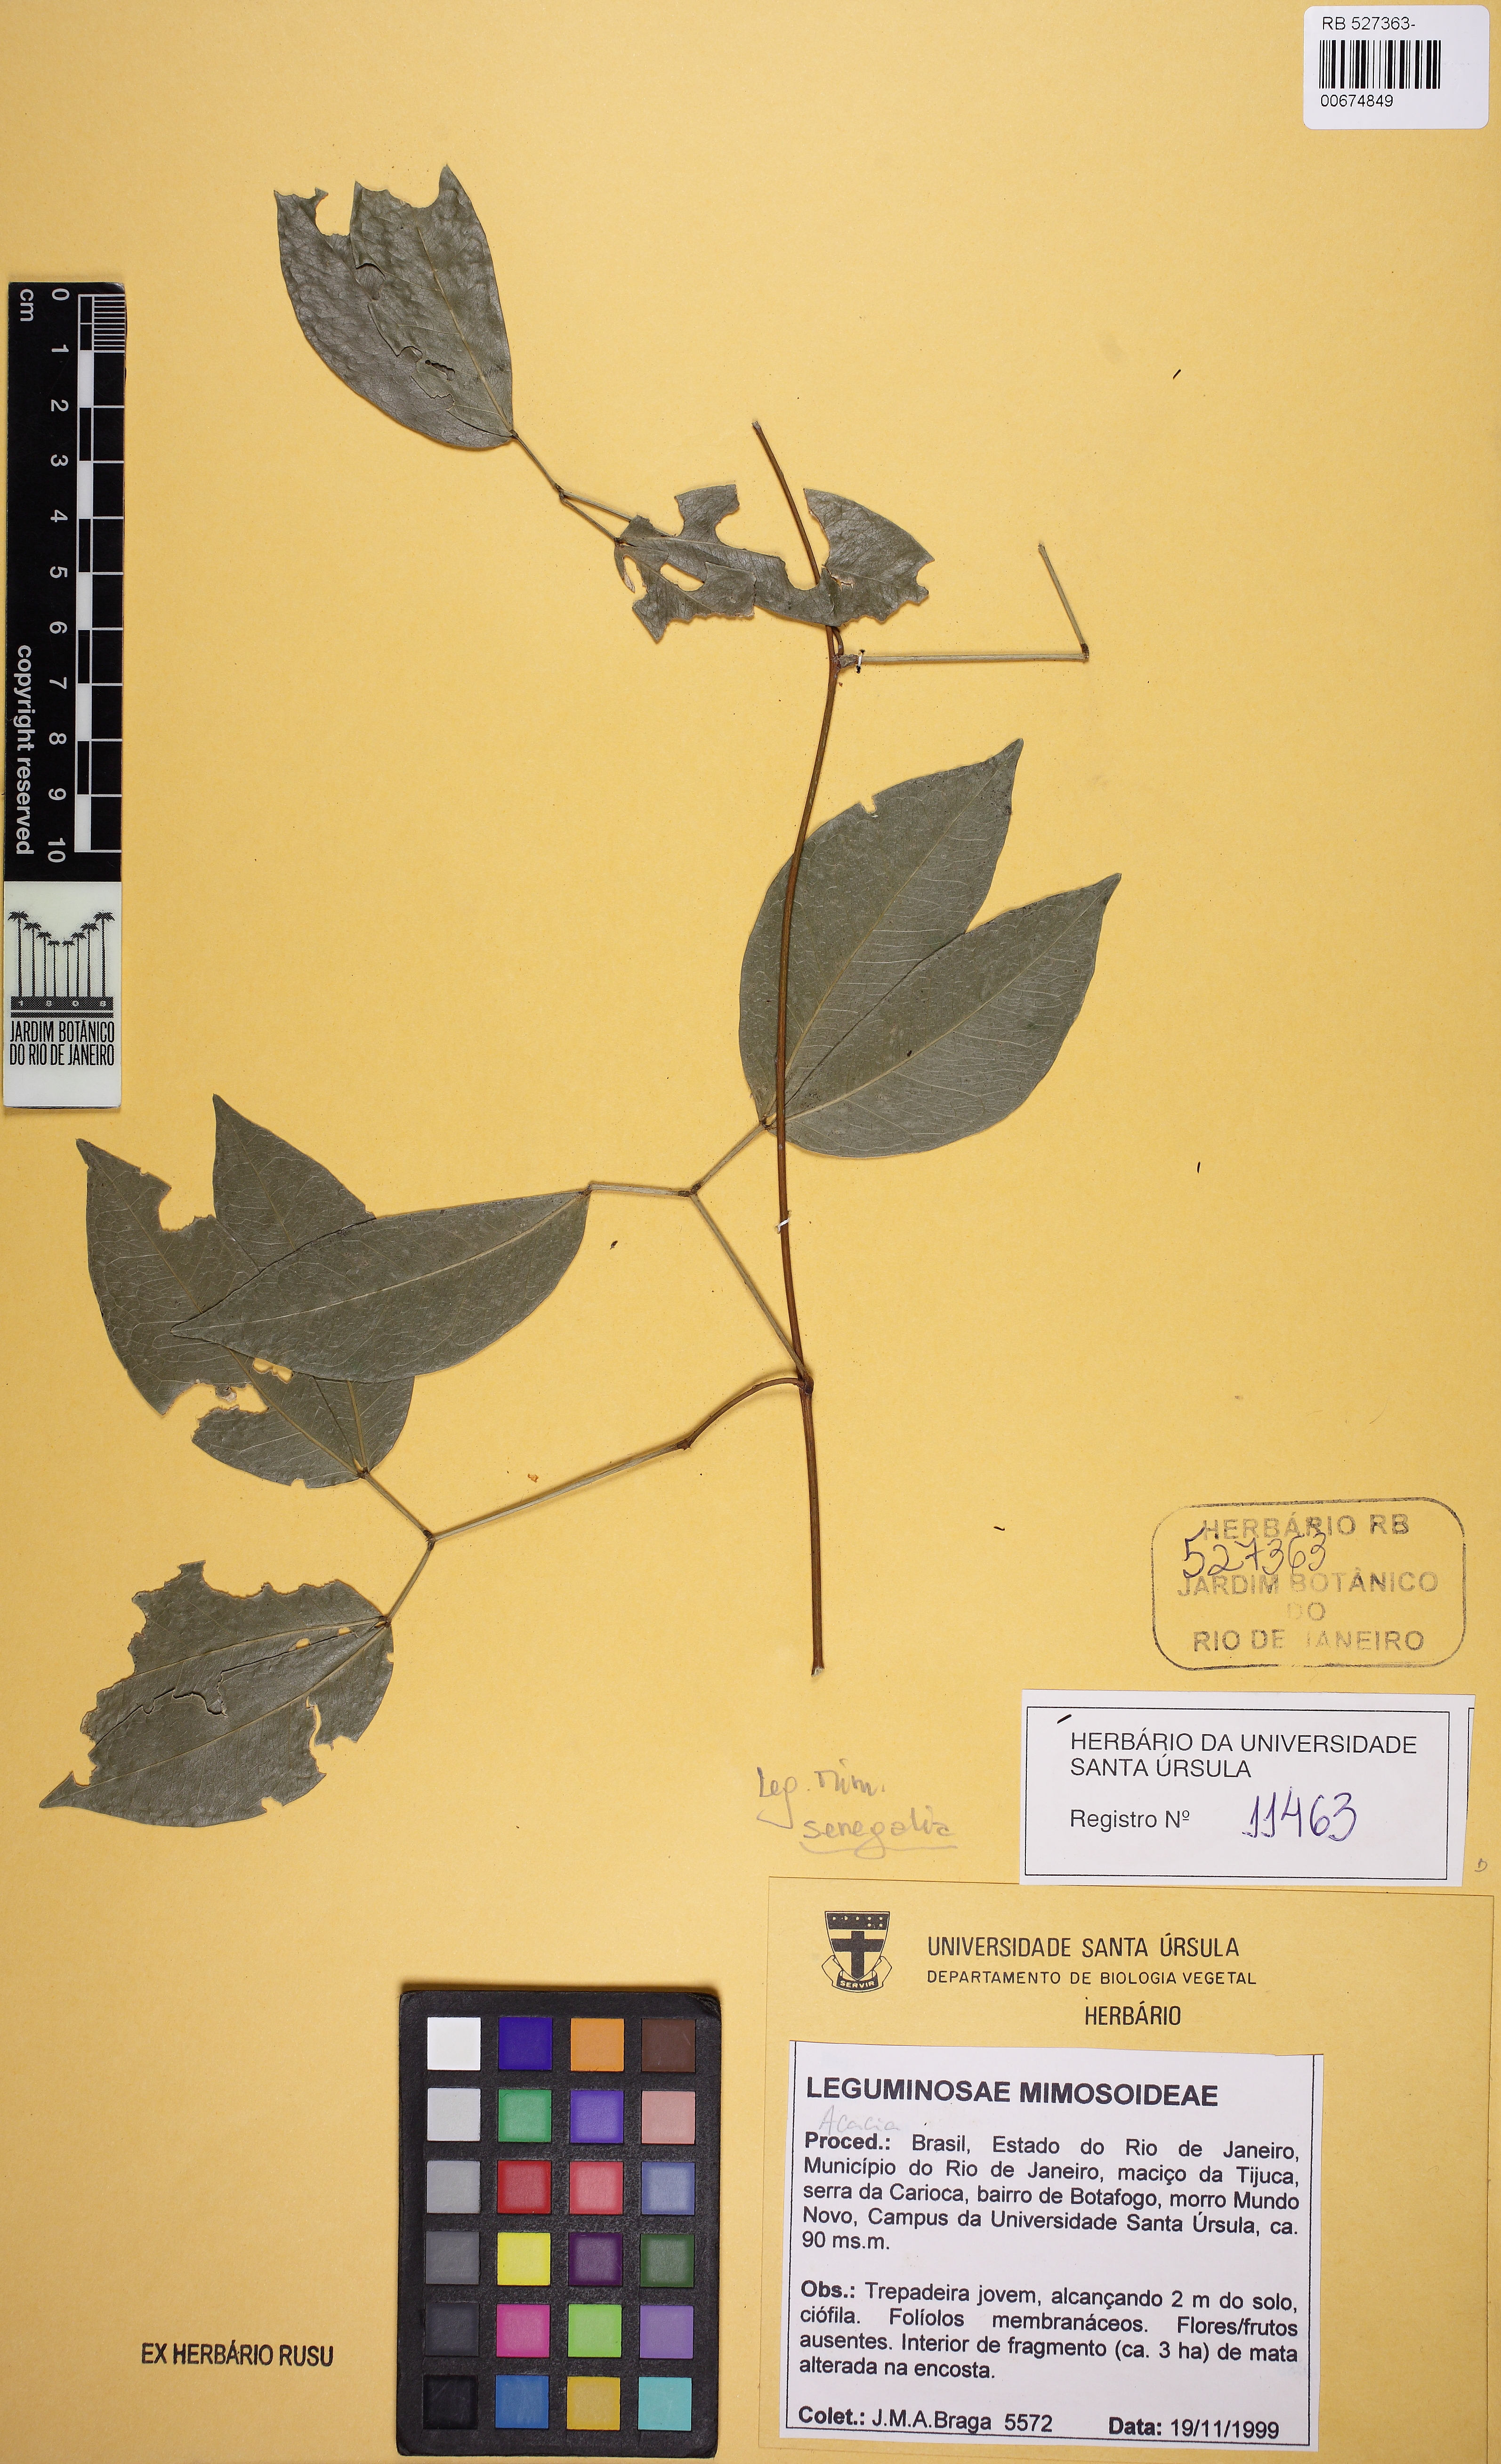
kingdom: Plantae
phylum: Tracheophyta
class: Magnoliopsida
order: Fabales
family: Fabaceae
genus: Parasenegalia
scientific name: Parasenegalia miersii
